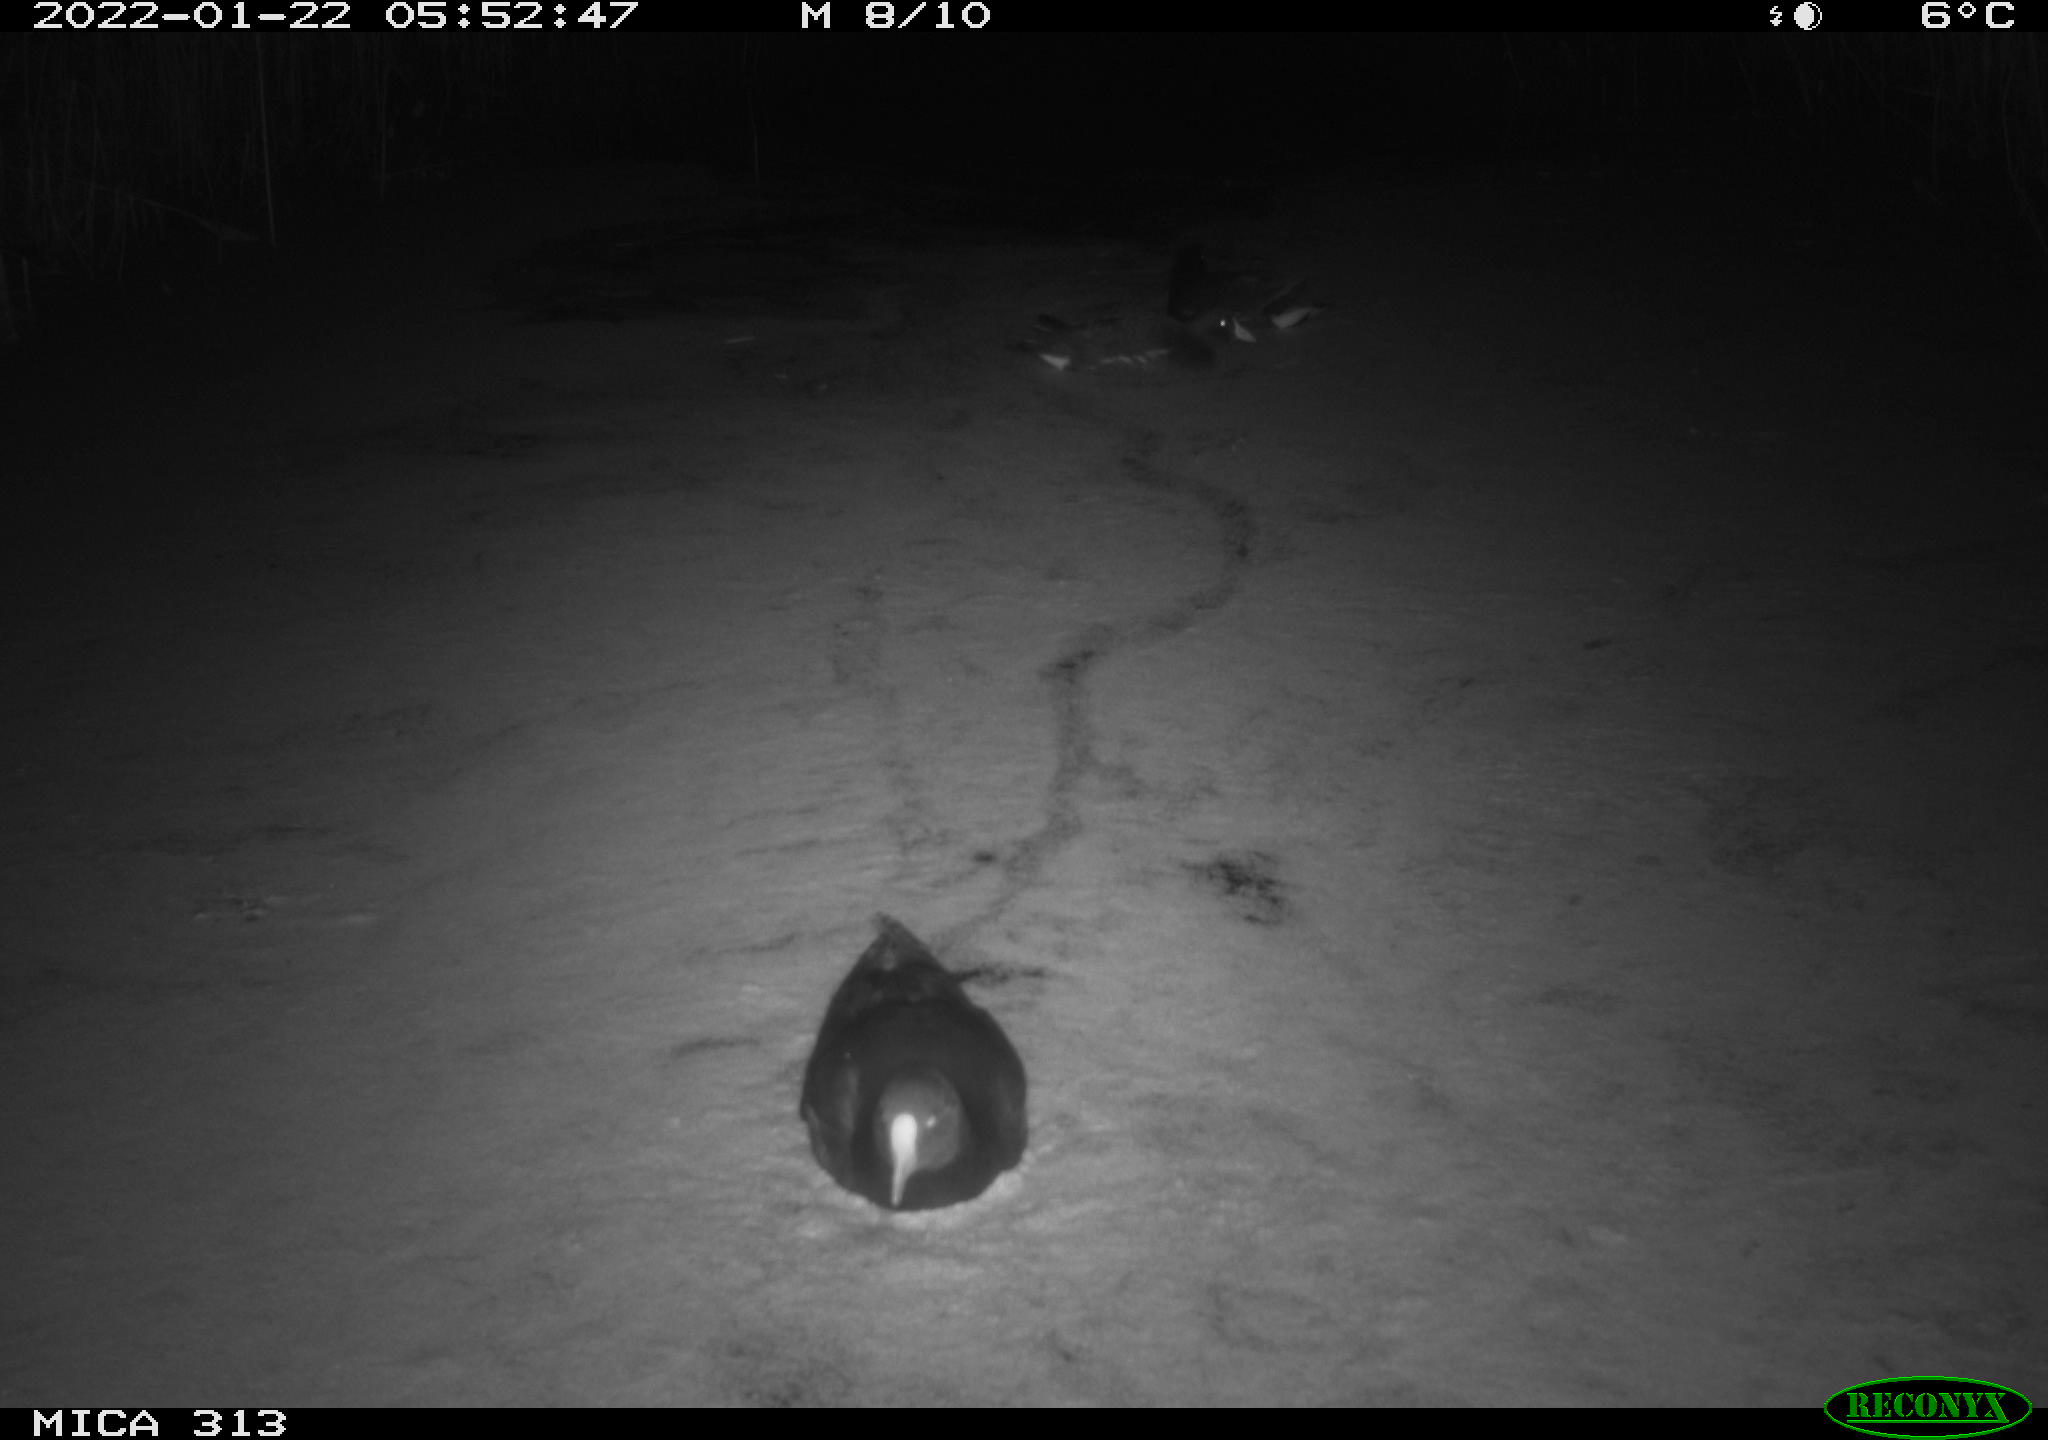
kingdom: Animalia
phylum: Chordata
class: Aves
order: Gruiformes
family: Rallidae
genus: Gallinula
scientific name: Gallinula chloropus
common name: Common moorhen
